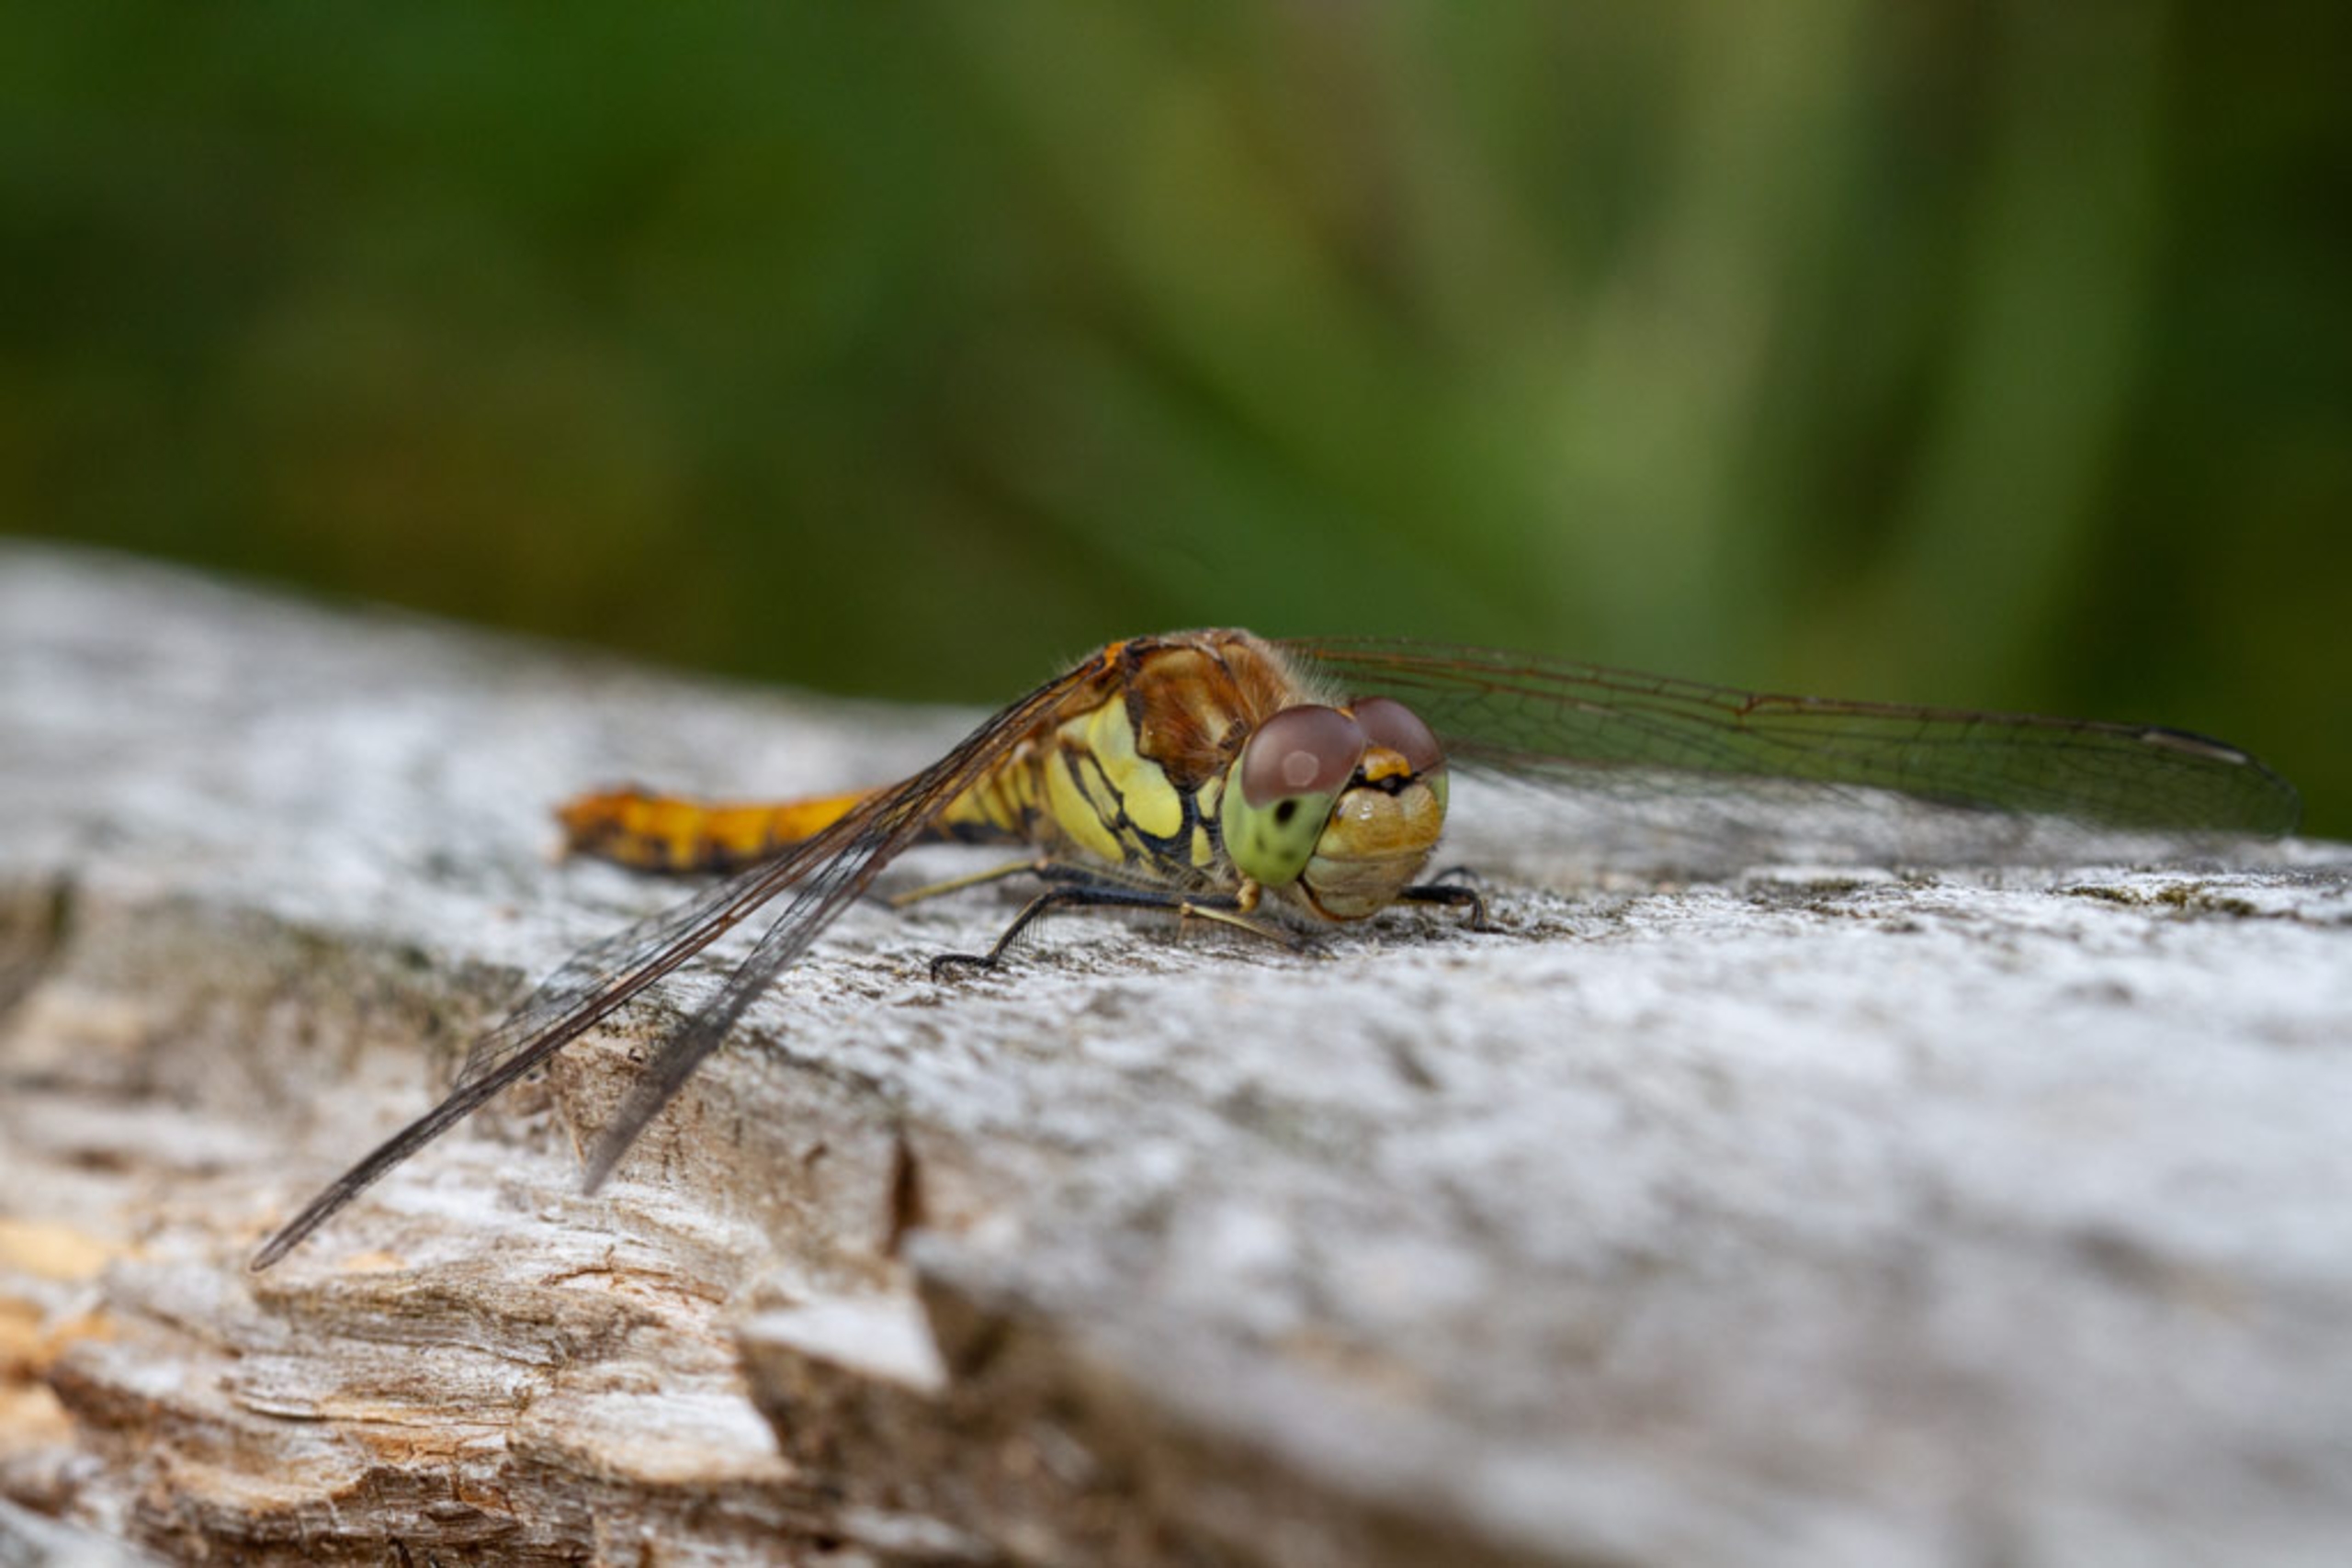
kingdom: Animalia
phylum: Arthropoda
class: Insecta
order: Odonata
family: Libellulidae
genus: Sympetrum
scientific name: Sympetrum striolatum
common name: Stor hedelibel
